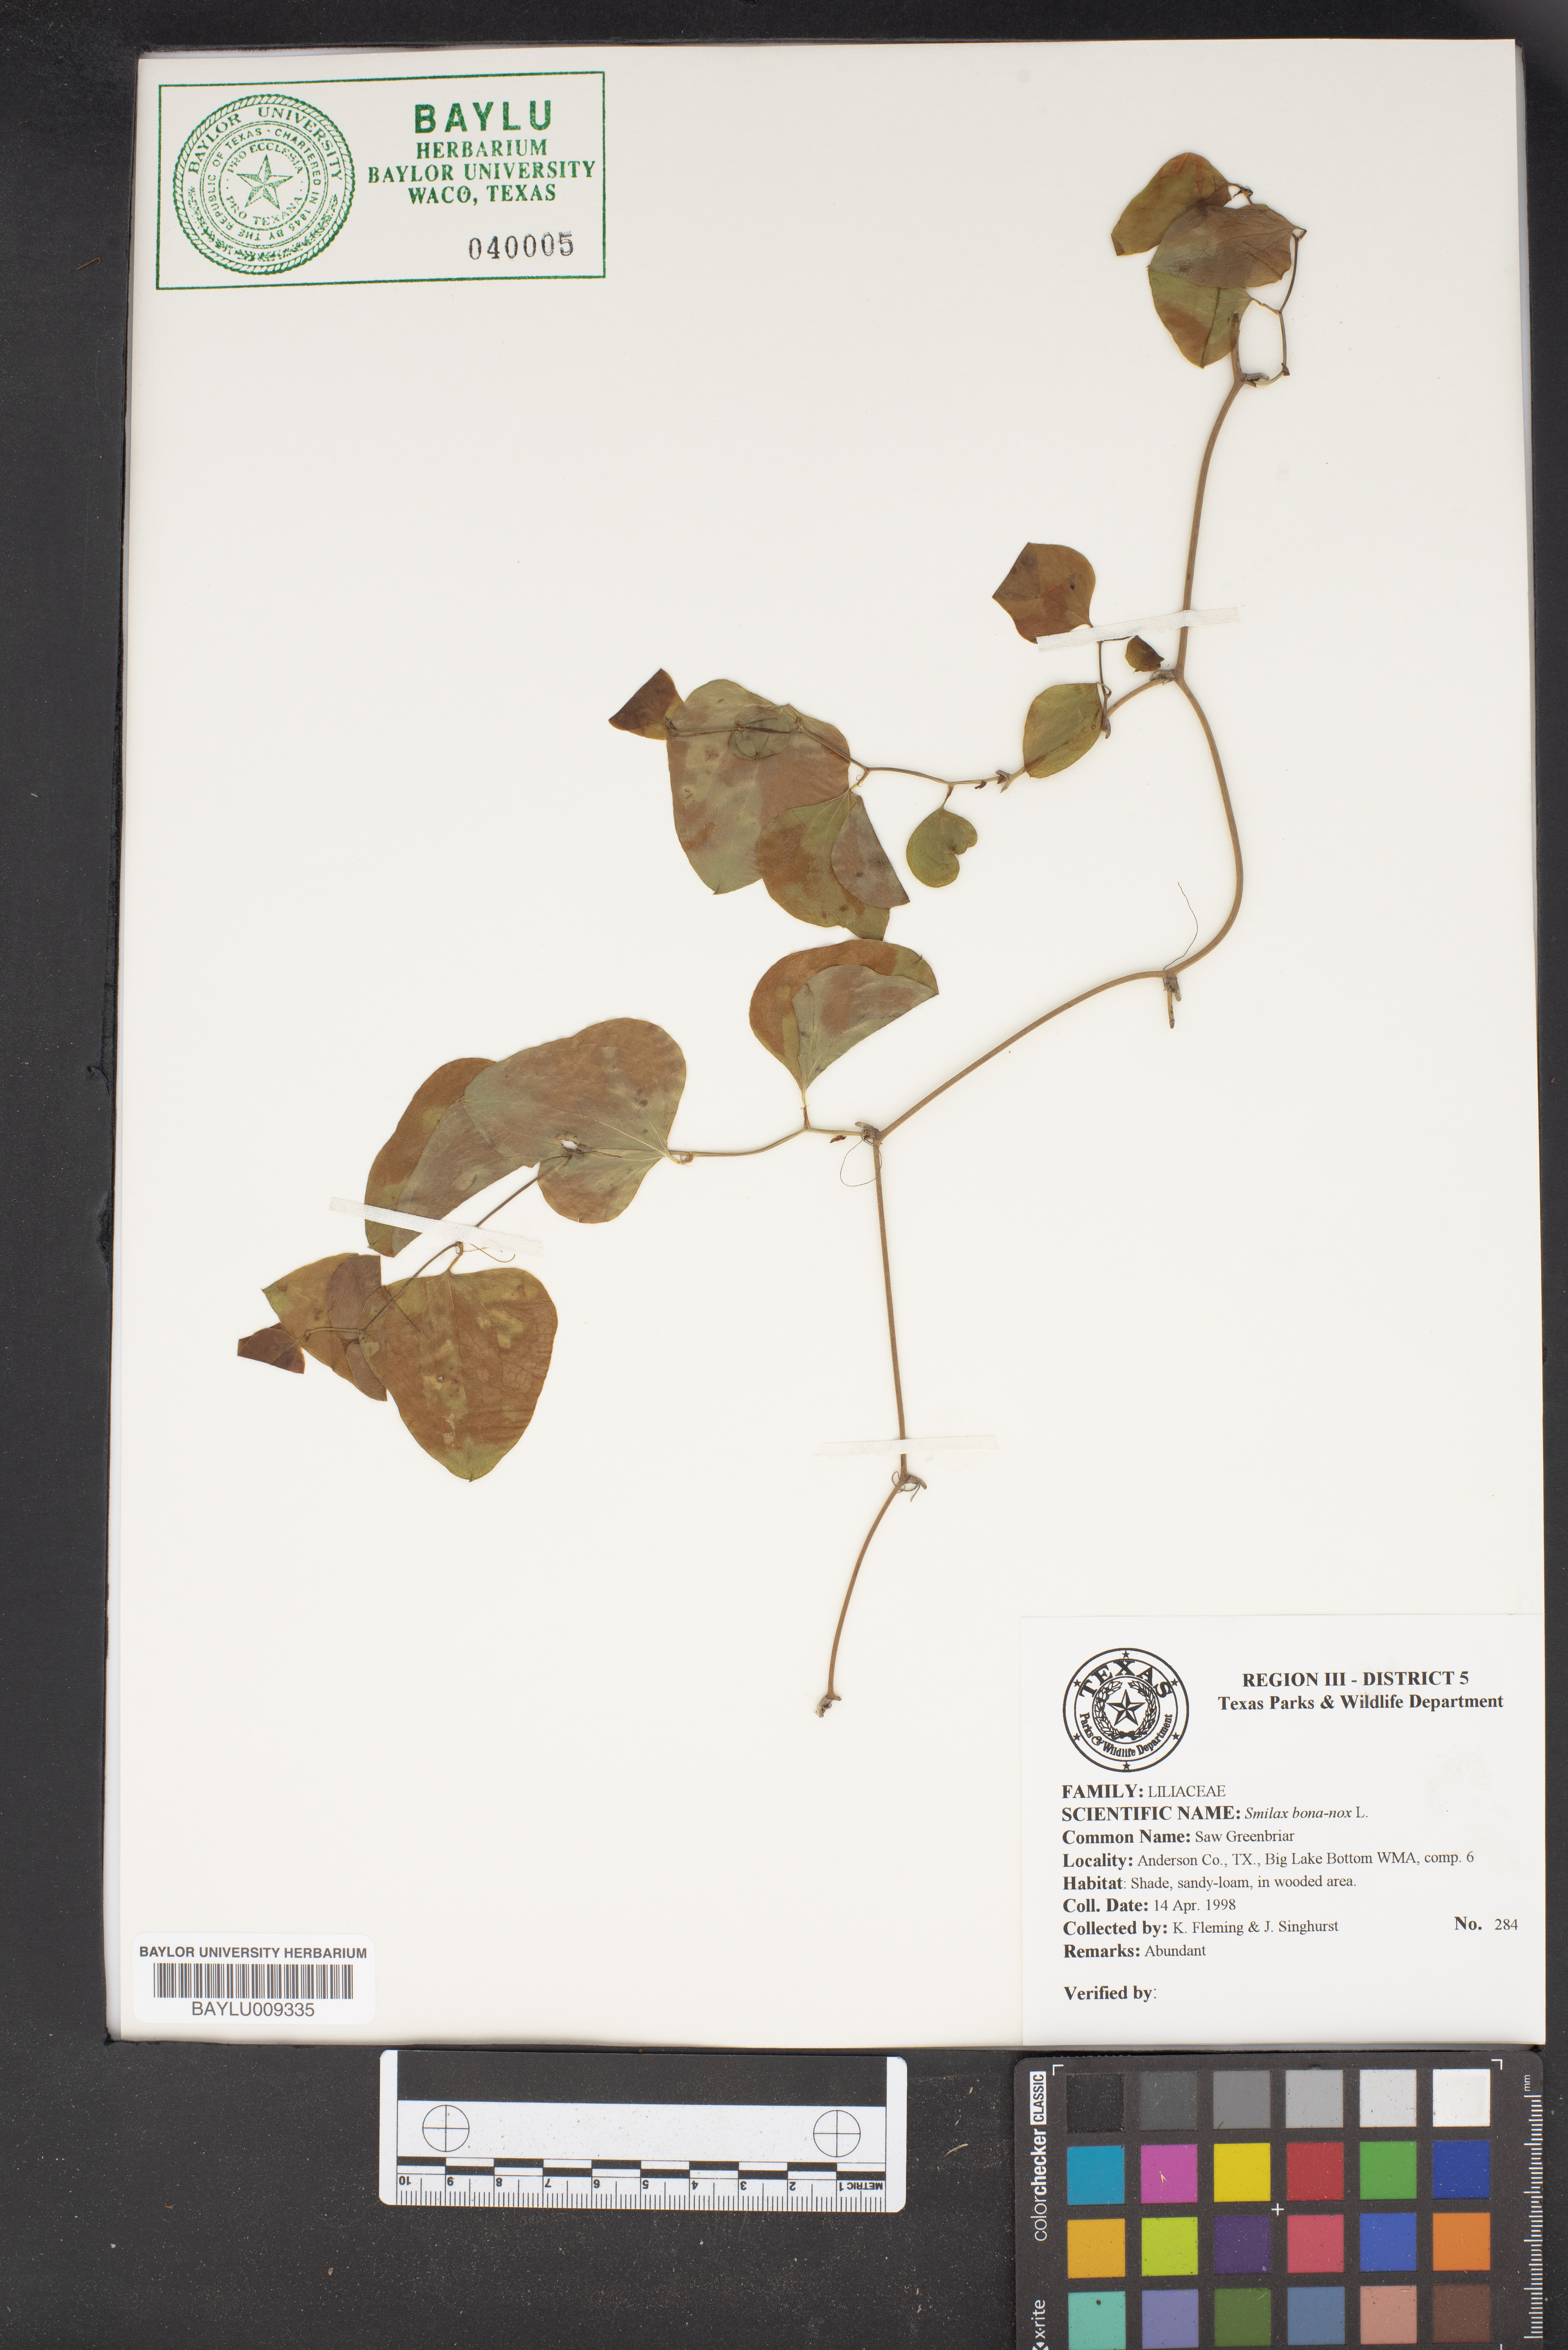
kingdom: Plantae
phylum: Tracheophyta
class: Liliopsida
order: Liliales
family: Smilacaceae
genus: Smilax
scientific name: Smilax bona-nox
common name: Catbrier
